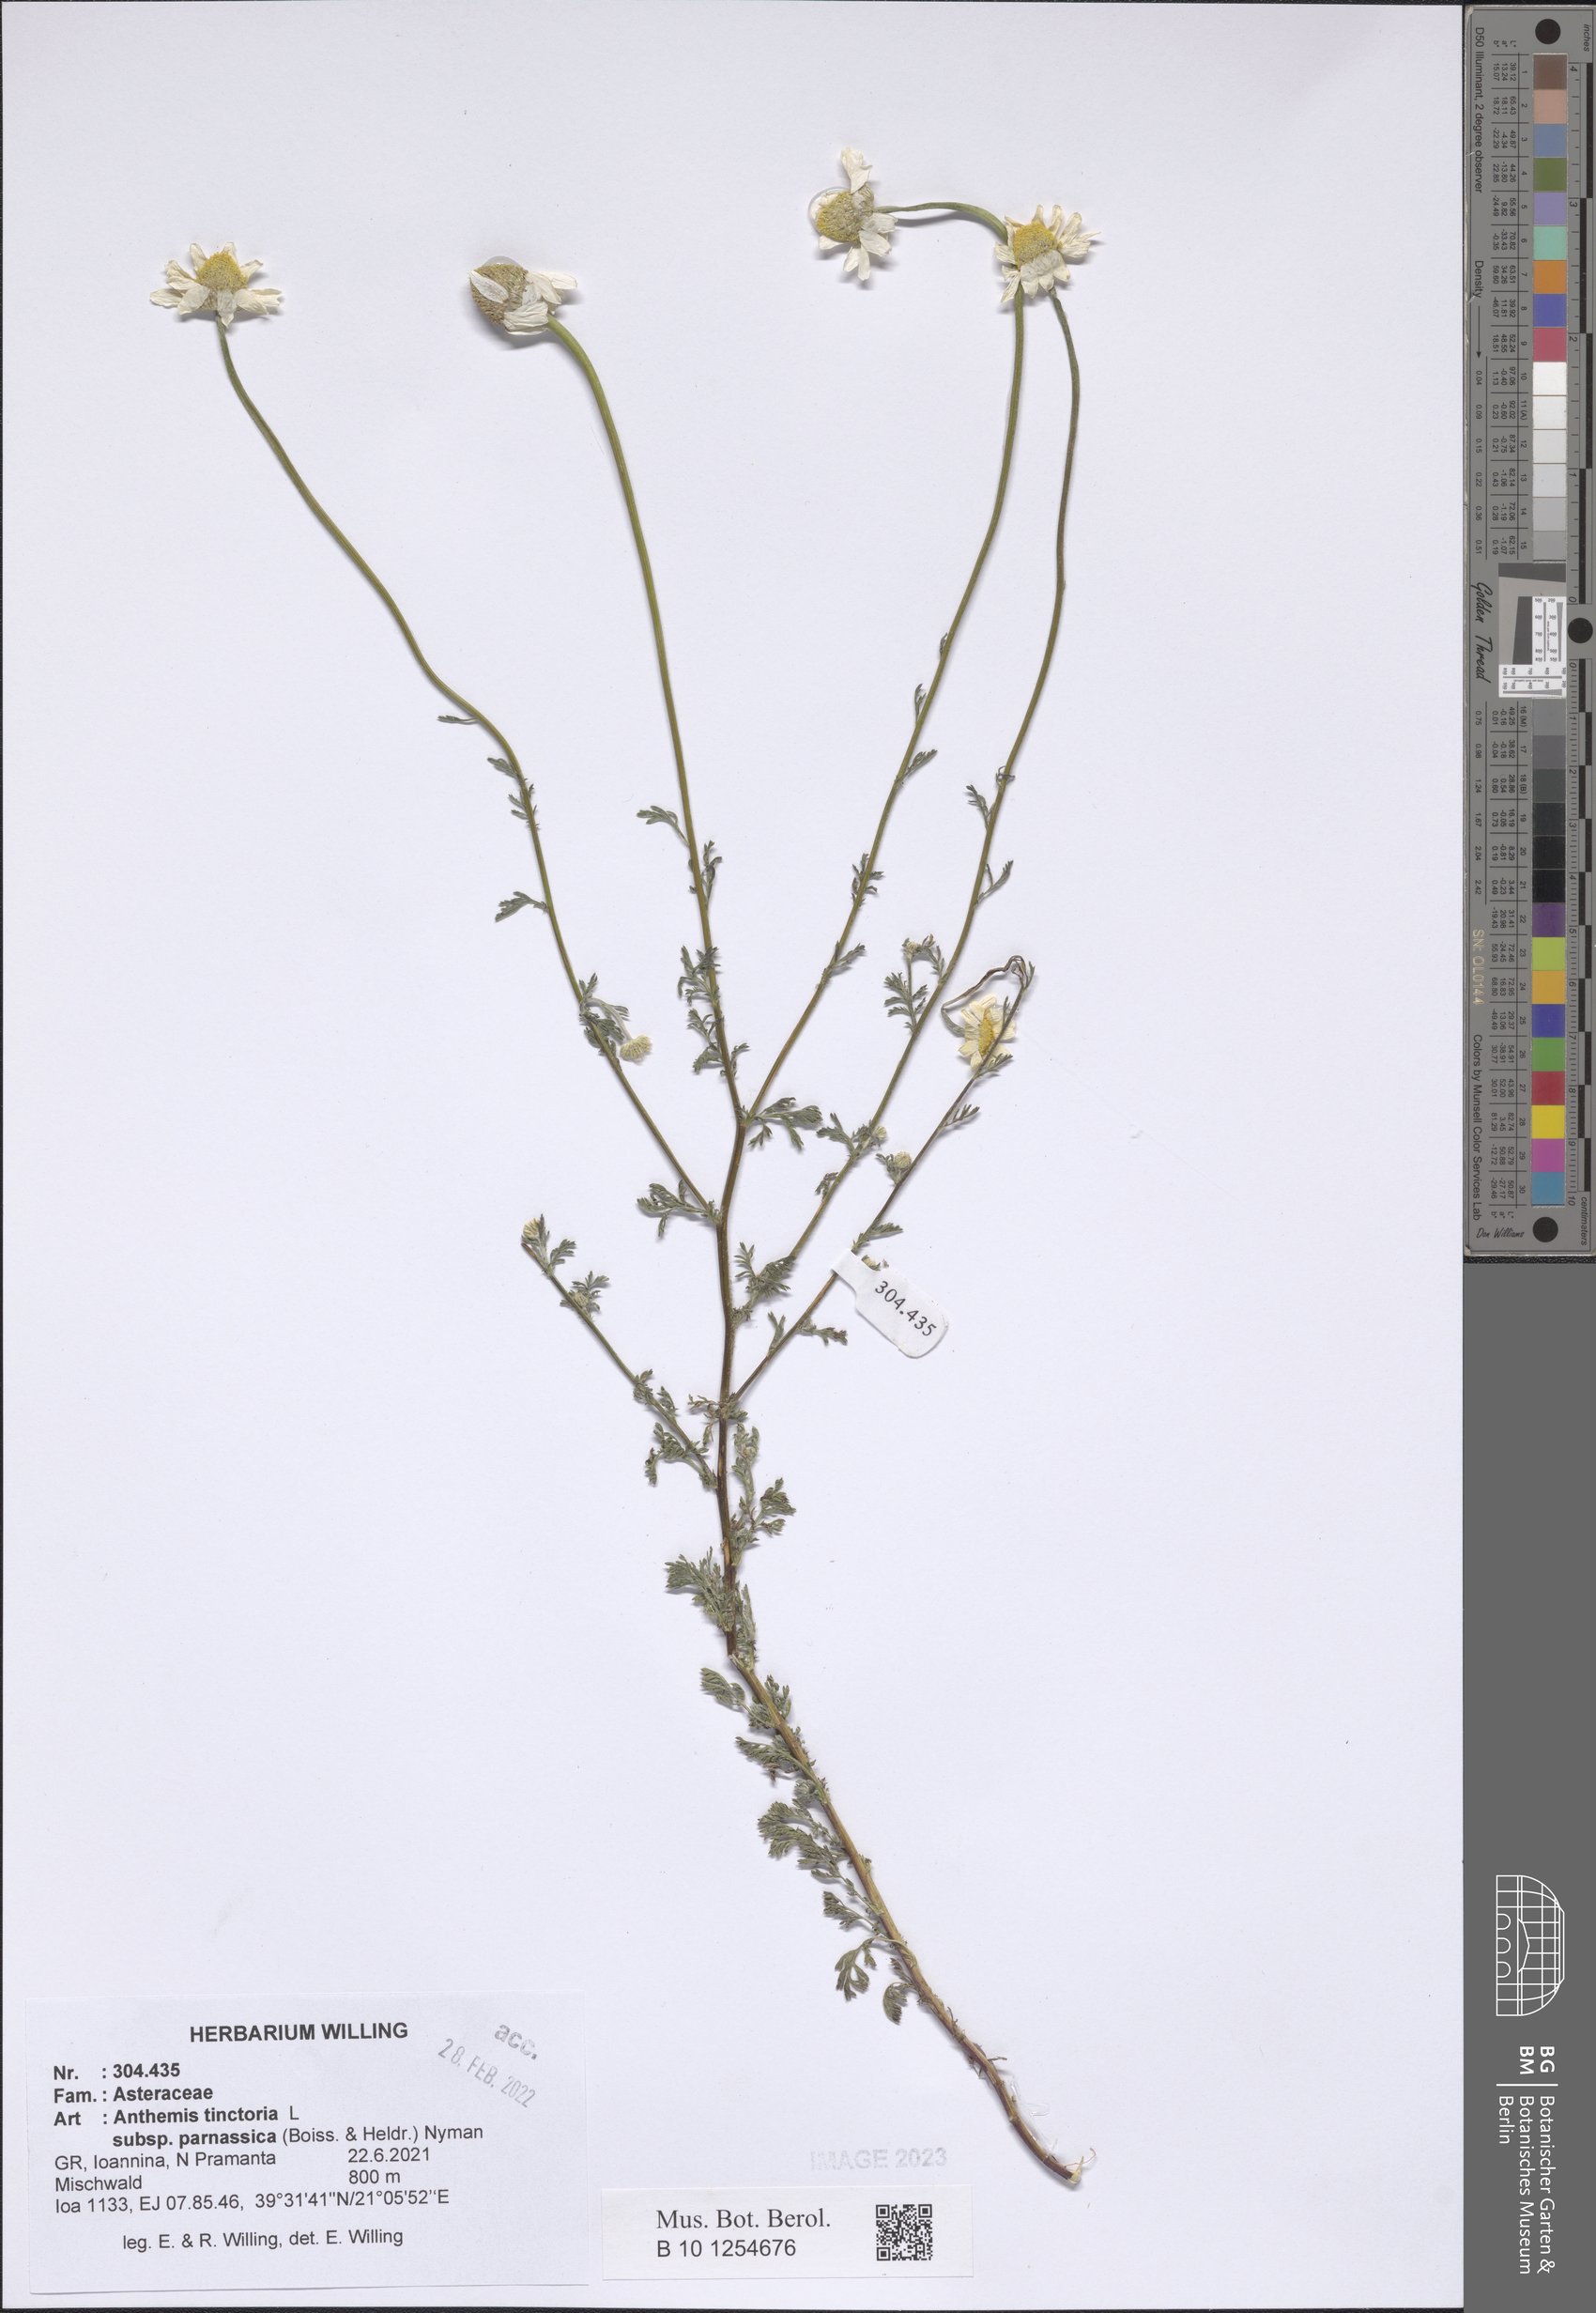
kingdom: Plantae
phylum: Tracheophyta
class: Magnoliopsida
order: Asterales
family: Asteraceae
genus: Cota
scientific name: Cota tinctoria
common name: Golden chamomile
